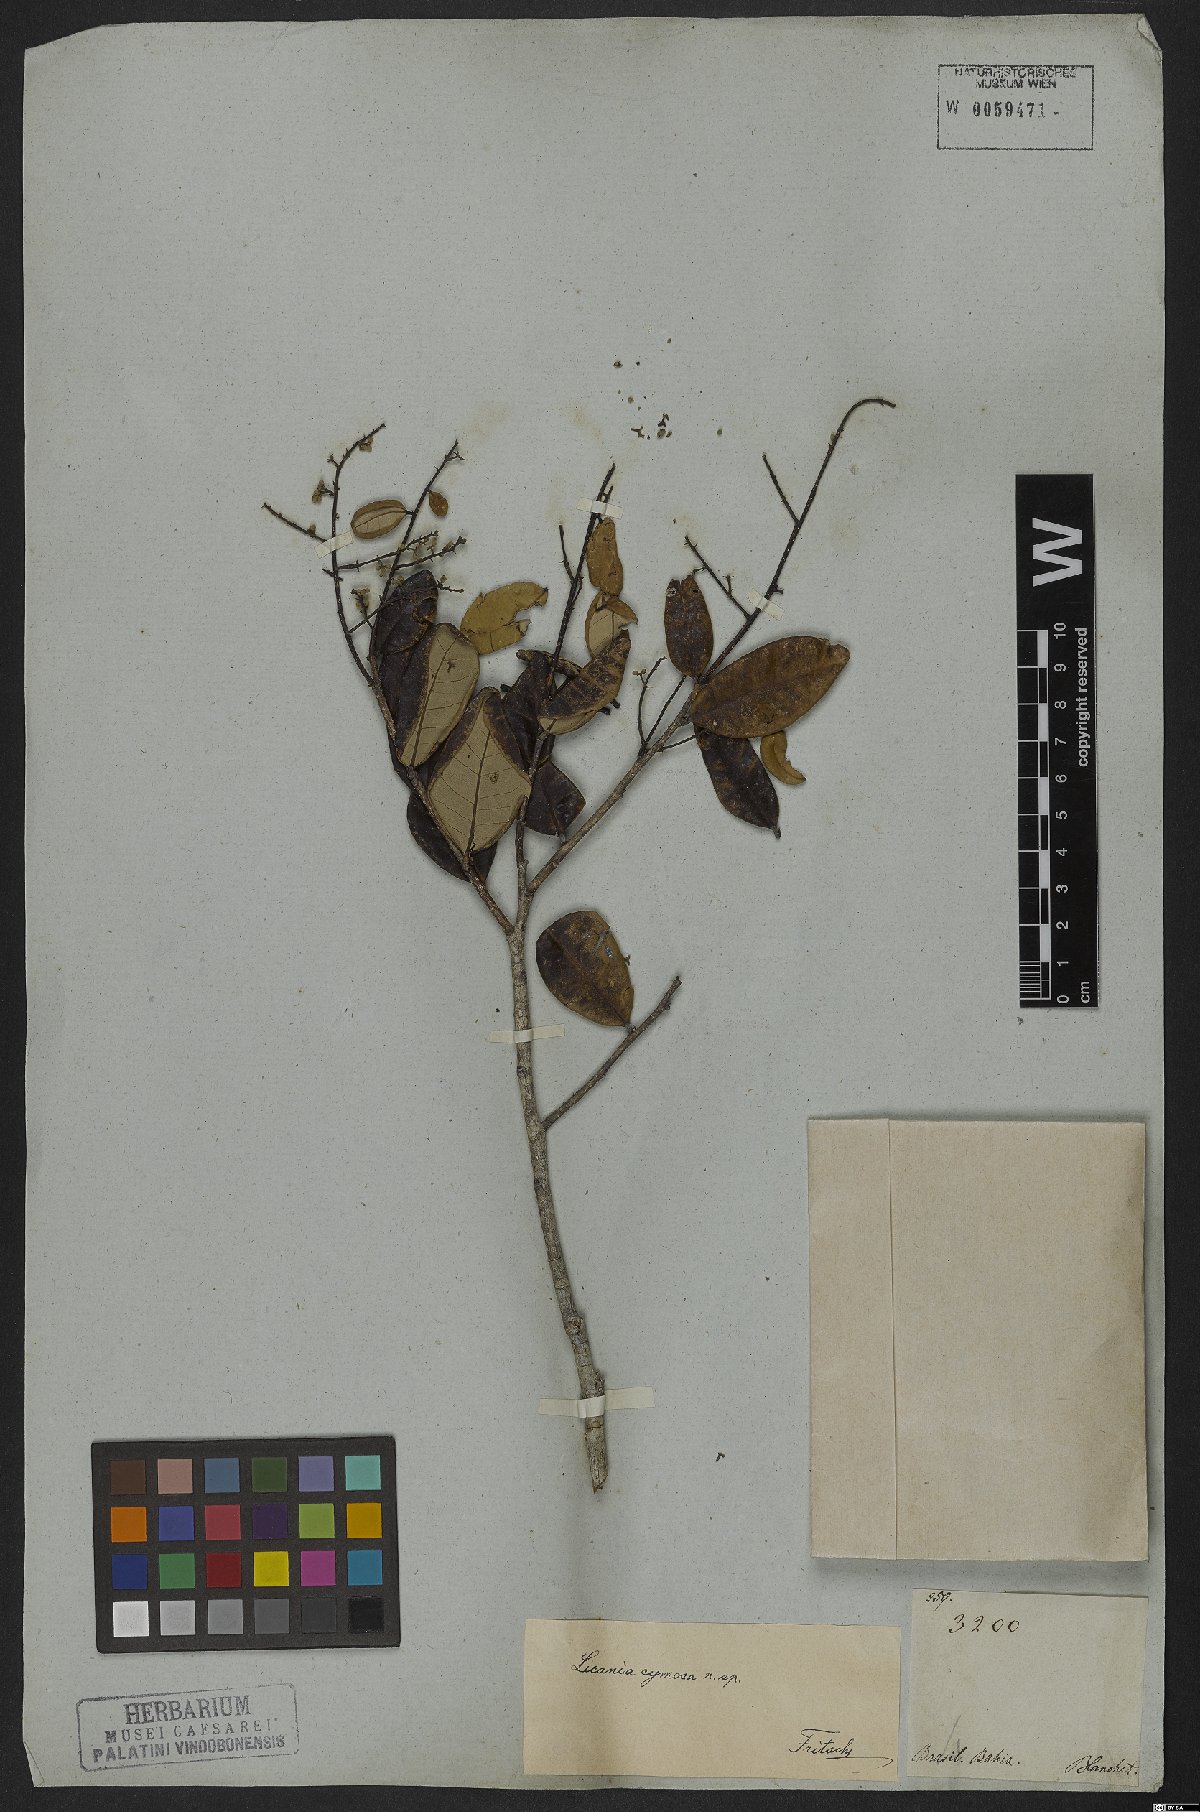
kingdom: Plantae
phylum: Tracheophyta
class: Magnoliopsida
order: Malpighiales
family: Chrysobalanaceae
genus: Licania
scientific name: Licania cymosa
